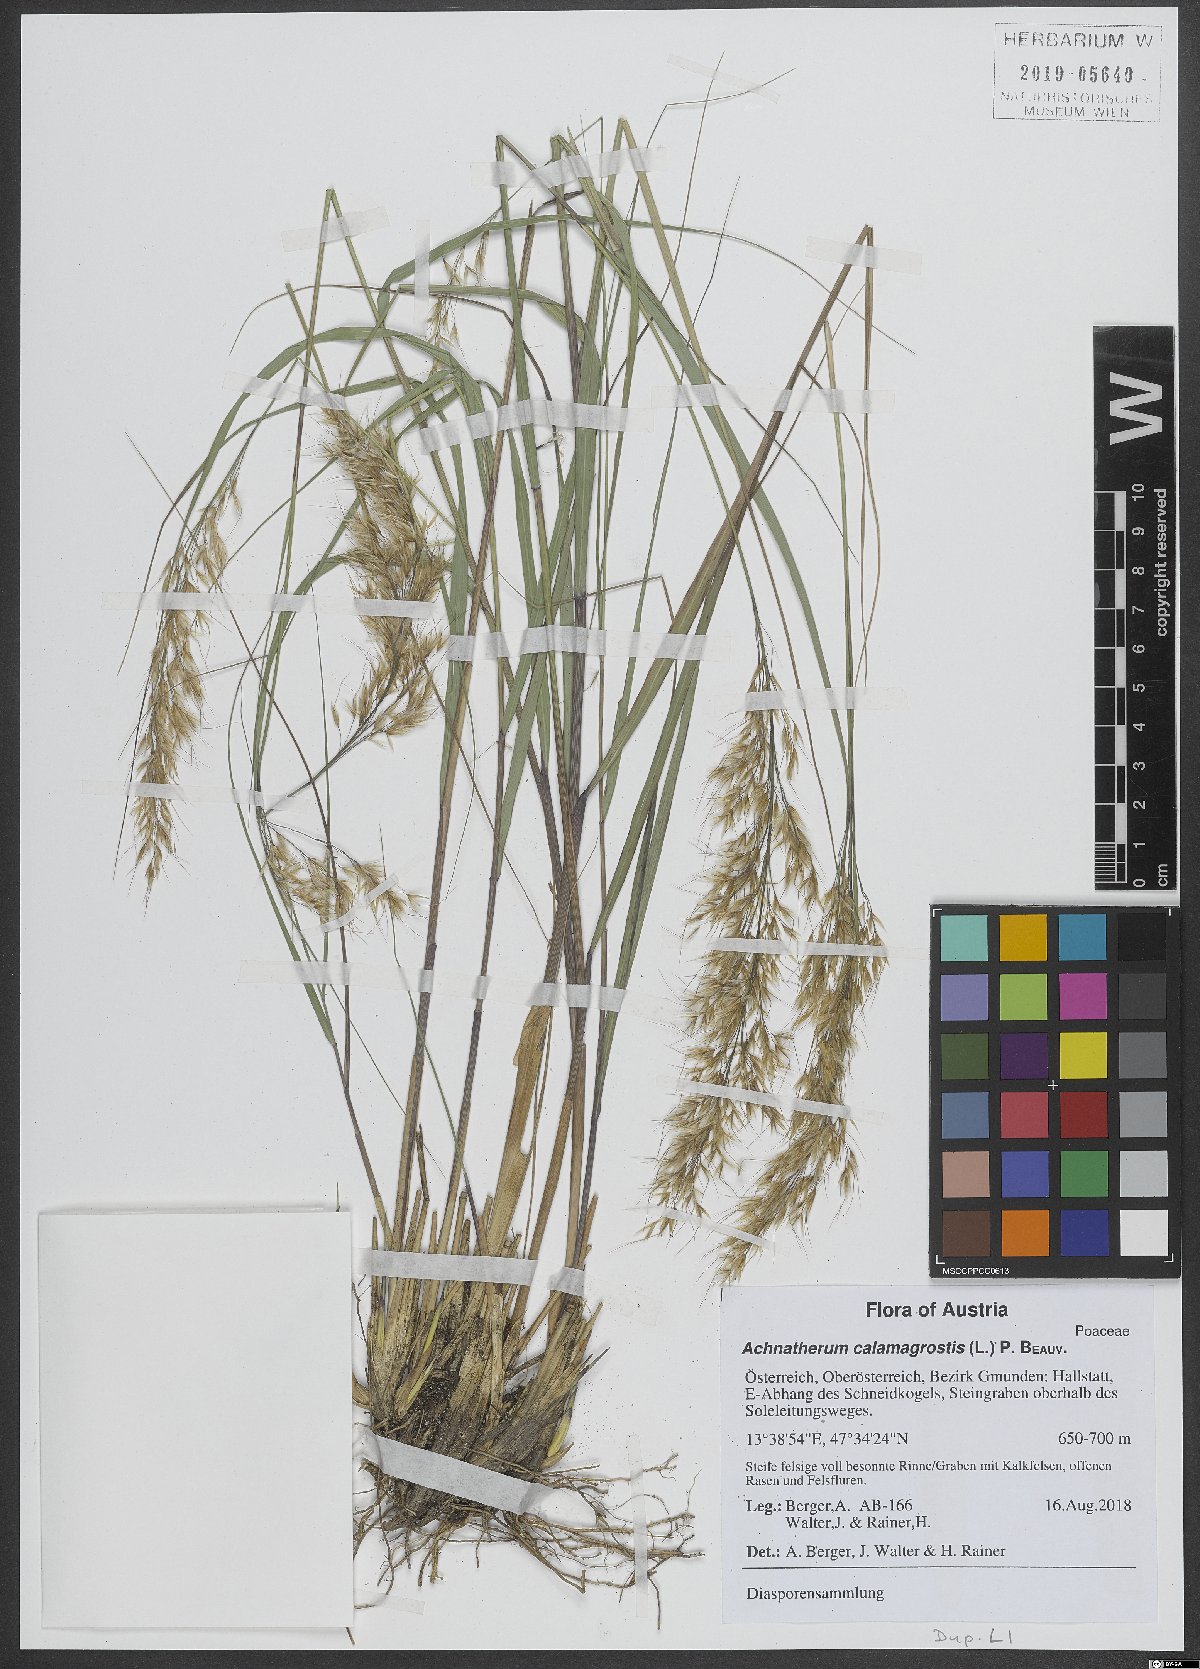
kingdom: Plantae
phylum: Tracheophyta
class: Liliopsida
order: Poales
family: Poaceae
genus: Achnatherum
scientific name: Achnatherum calamagrostis
